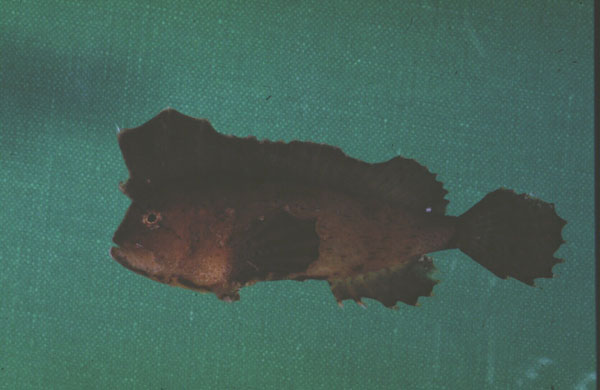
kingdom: Animalia
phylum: Chordata
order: Scorpaeniformes
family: Aploactinidae
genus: Ptarmus
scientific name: Ptarmus jubatus
